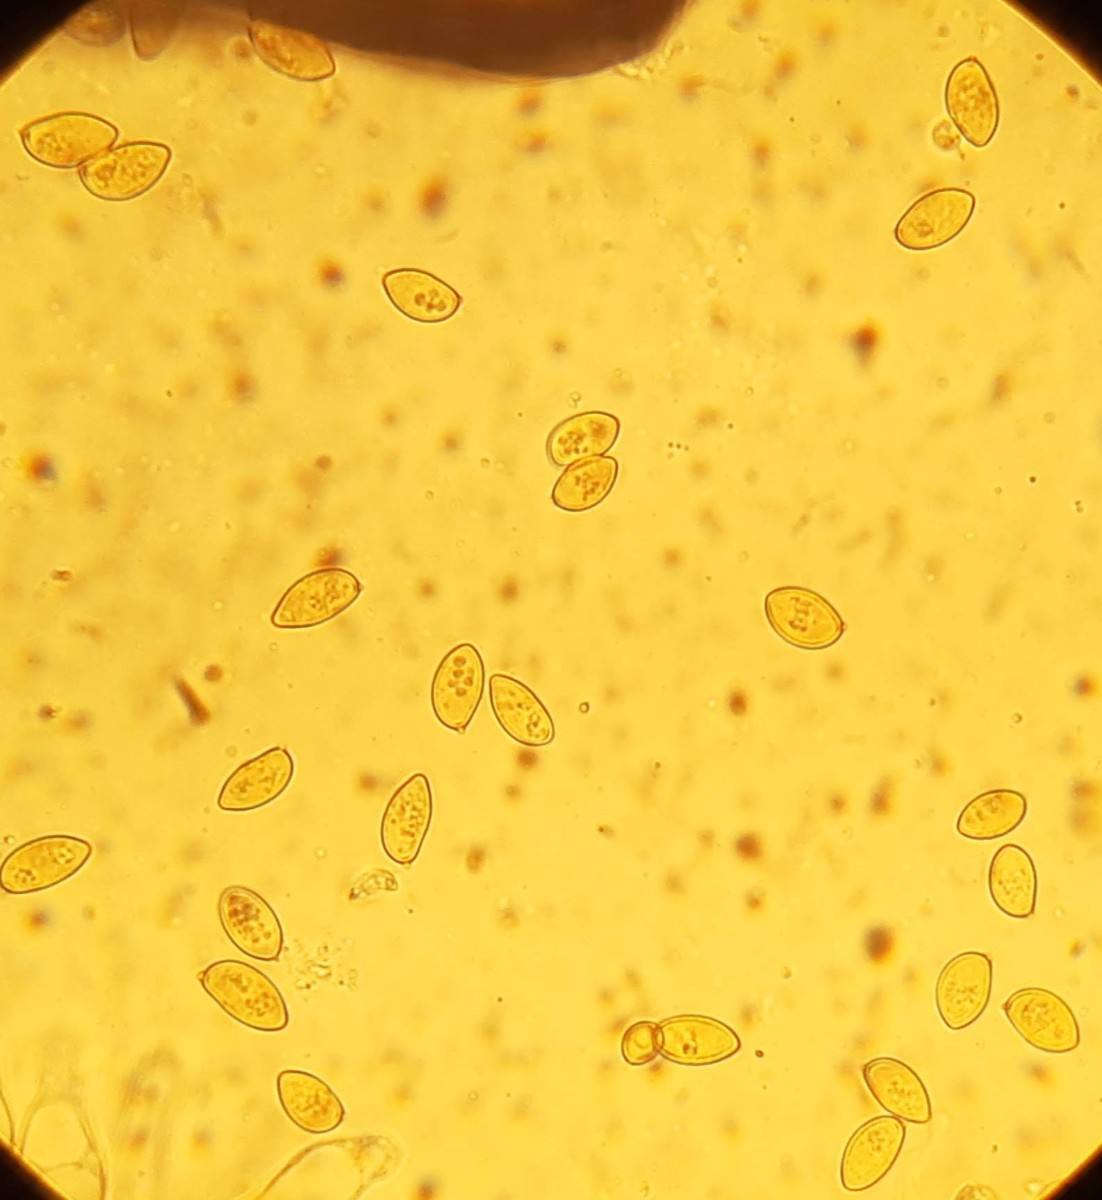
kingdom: Fungi
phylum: Basidiomycota
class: Agaricomycetes
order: Agaricales
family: Hymenogastraceae
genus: Galerina
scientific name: Galerina paludosa
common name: mose-hjelmhat
